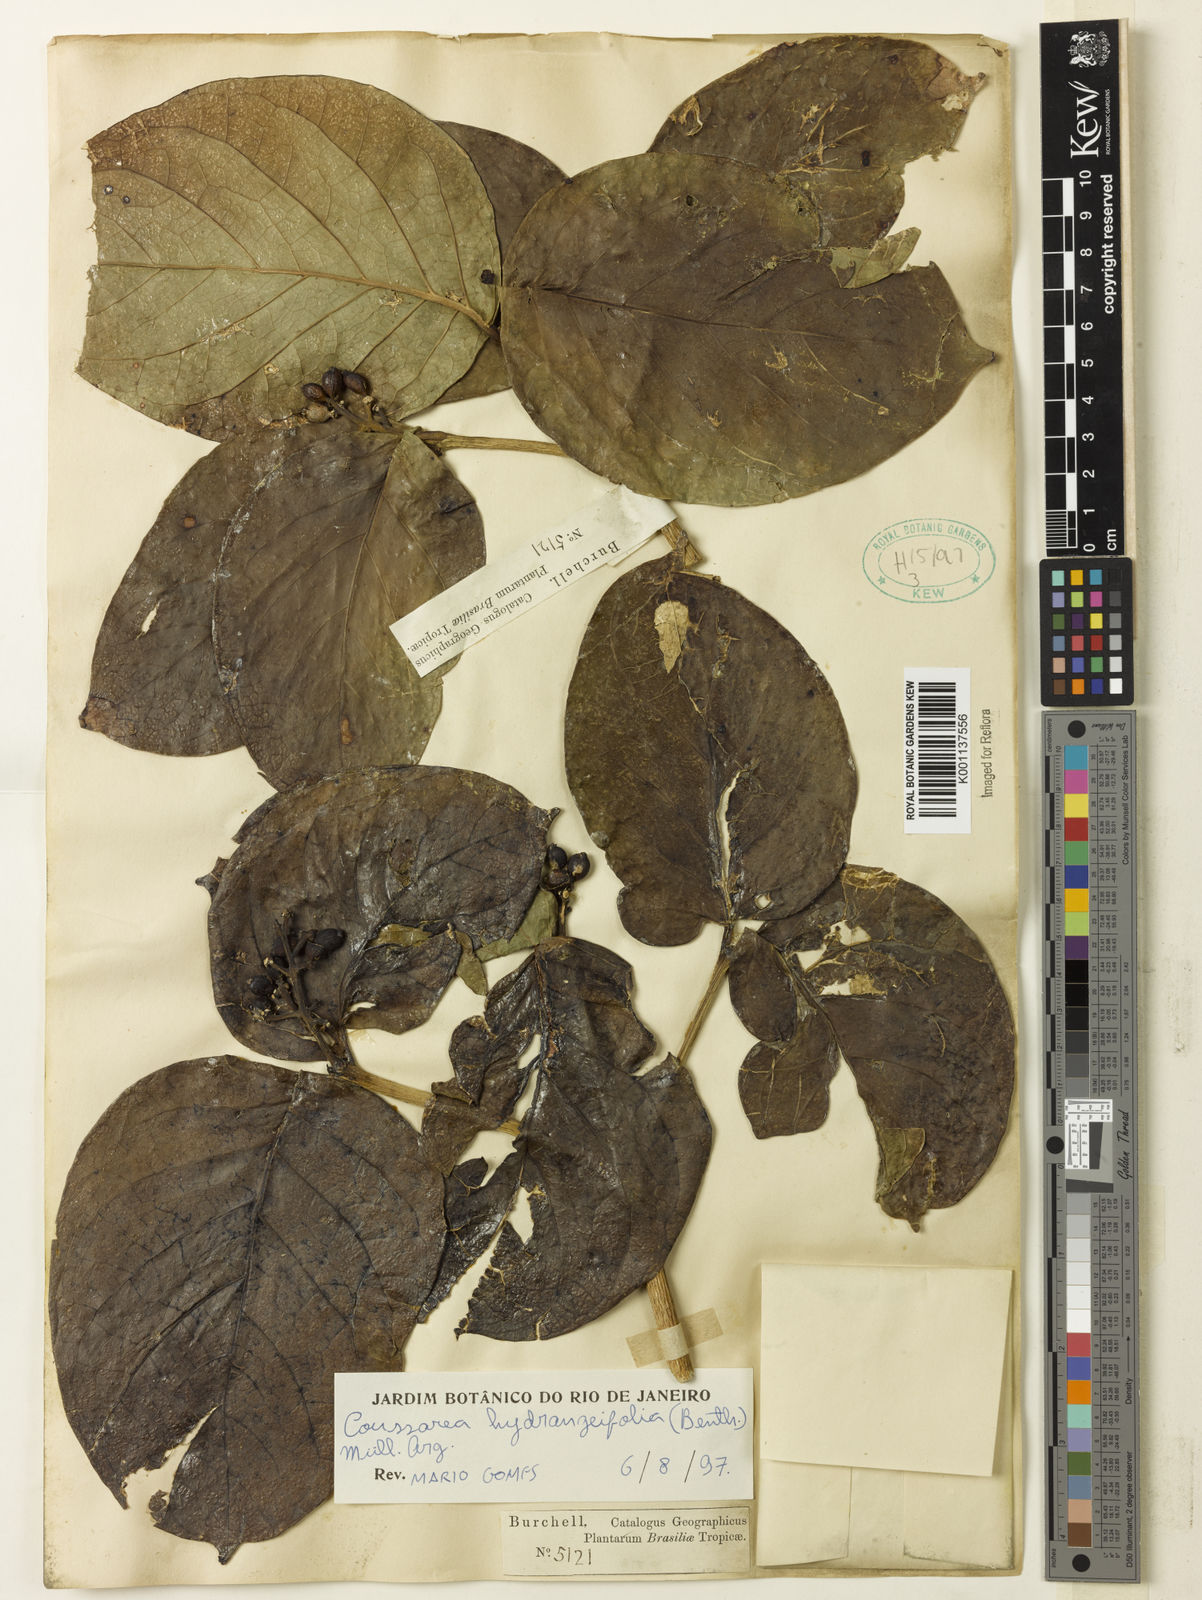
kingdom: Plantae
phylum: Tracheophyta
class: Magnoliopsida
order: Gentianales
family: Rubiaceae
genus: Coussarea
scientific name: Coussarea
